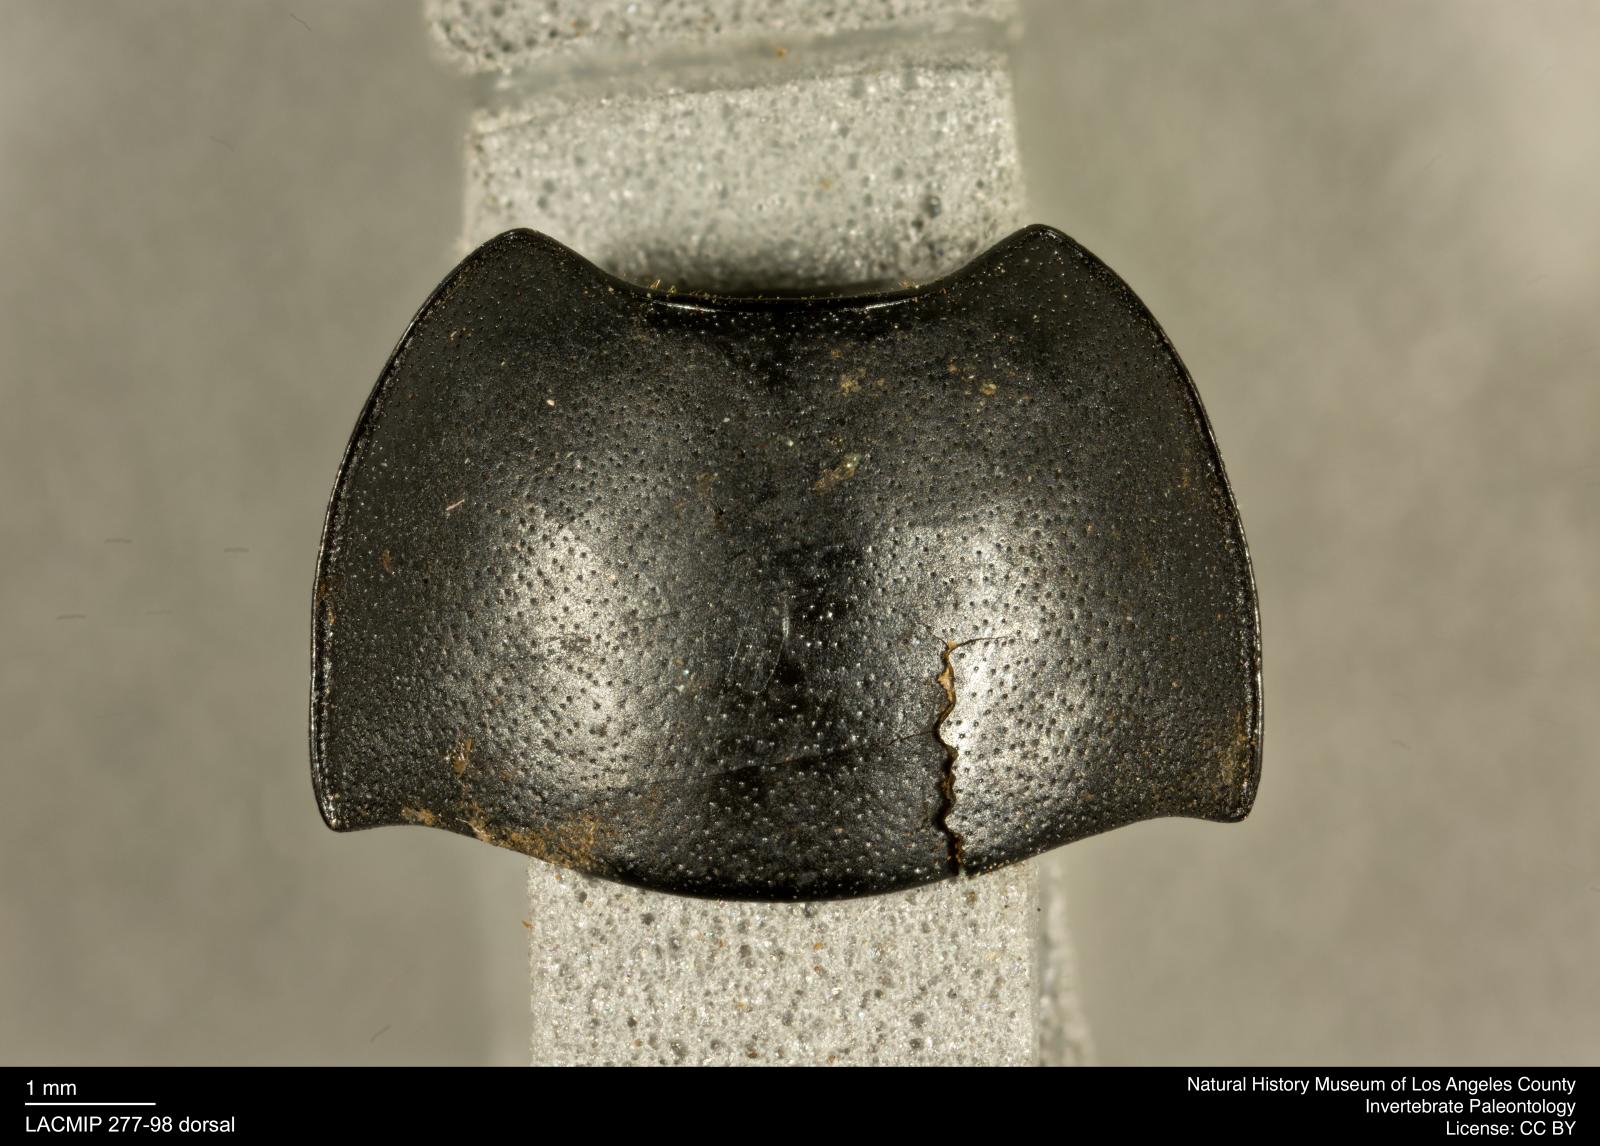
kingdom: Animalia
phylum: Arthropoda
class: Insecta
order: Coleoptera
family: Tenebrionidae
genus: Coniontis
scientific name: Coniontis abdominalis
